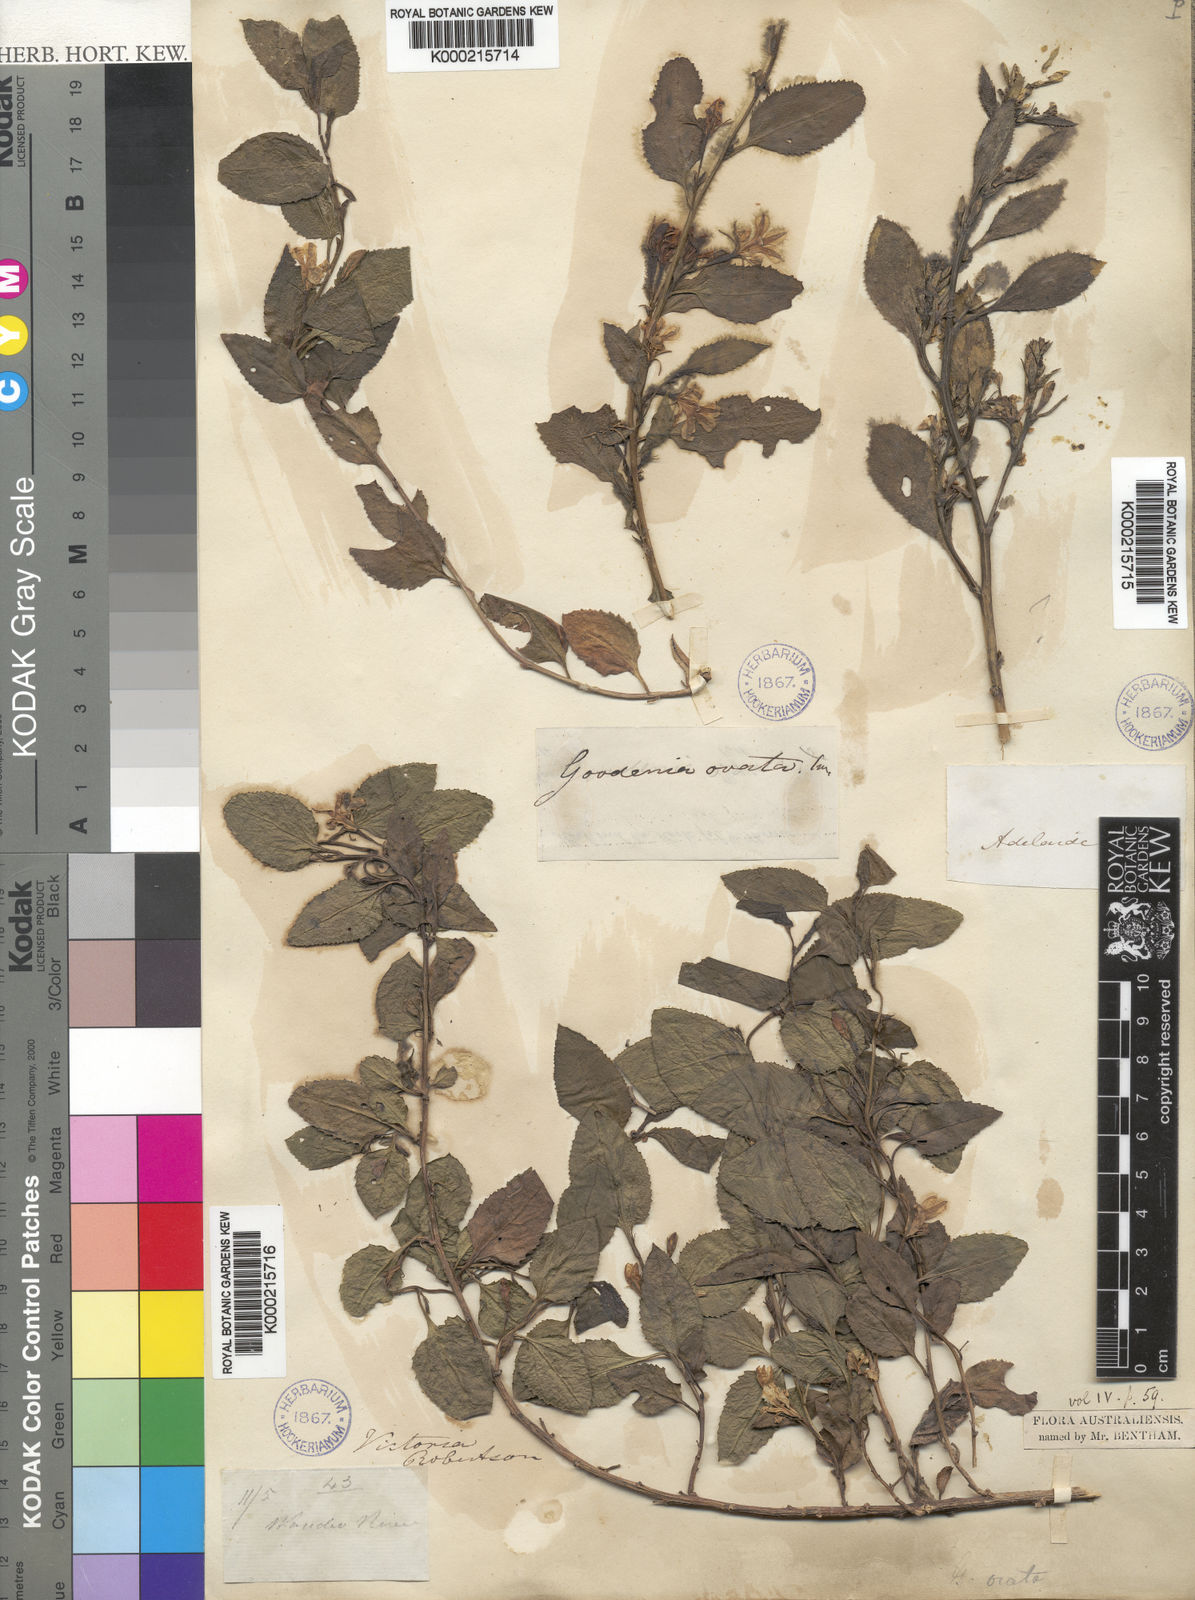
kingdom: Plantae
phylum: Tracheophyta
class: Magnoliopsida
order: Asterales
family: Goodeniaceae
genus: Goodenia
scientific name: Goodenia ovata
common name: Hop goodenia
